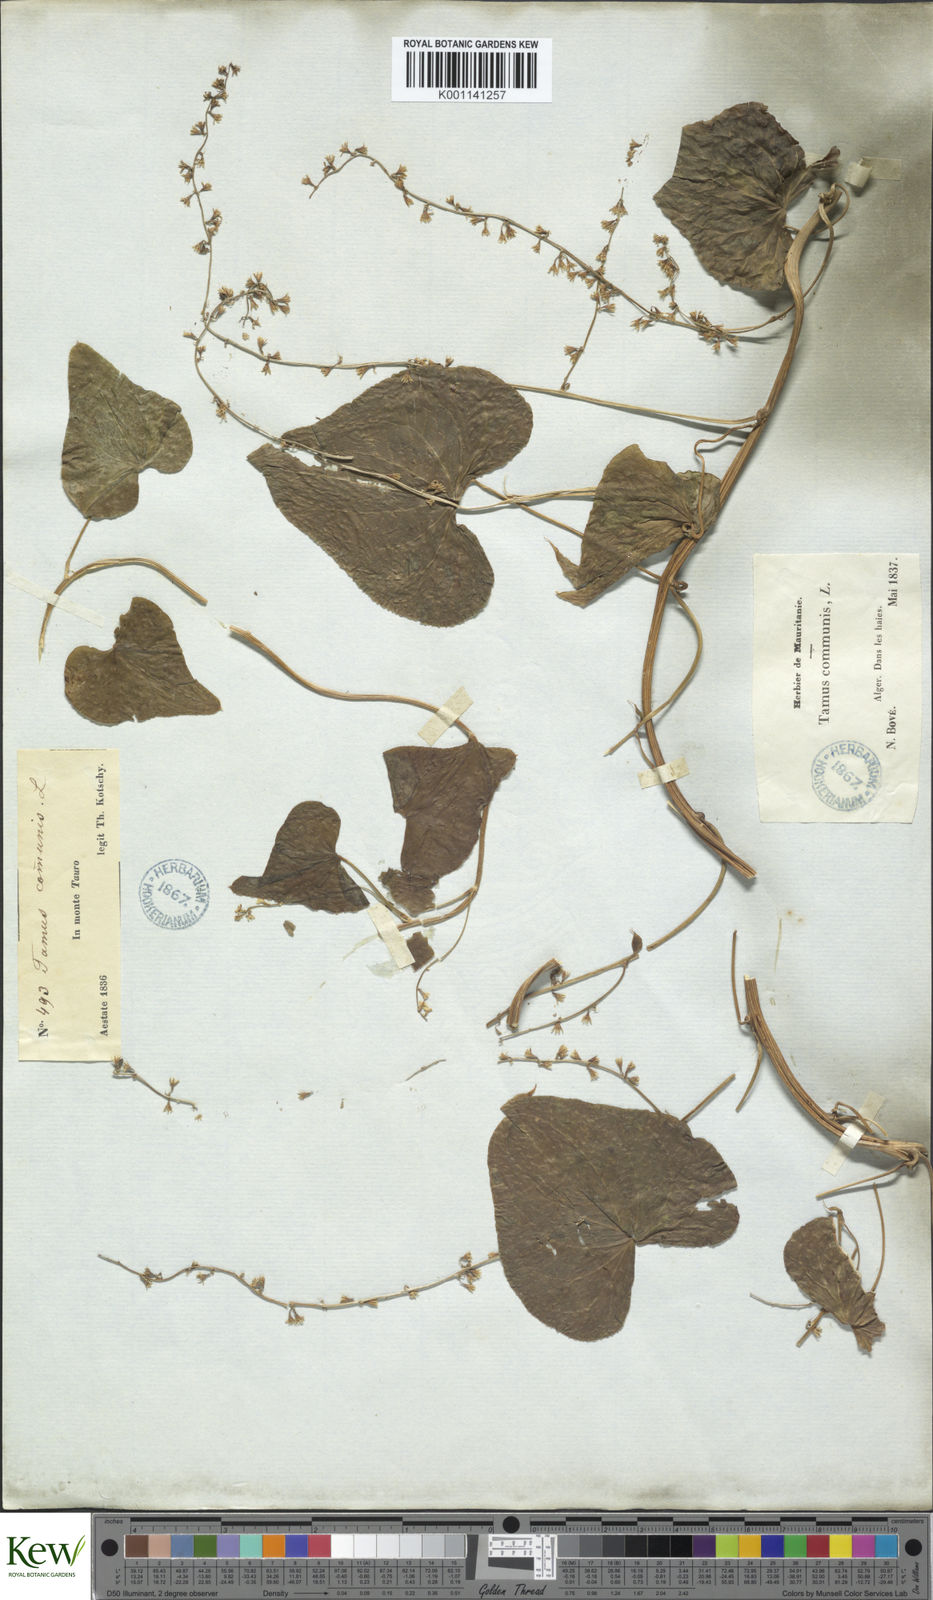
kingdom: Plantae
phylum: Tracheophyta
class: Liliopsida
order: Dioscoreales
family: Dioscoreaceae
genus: Dioscorea
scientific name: Dioscorea communis
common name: Black-bindweed
